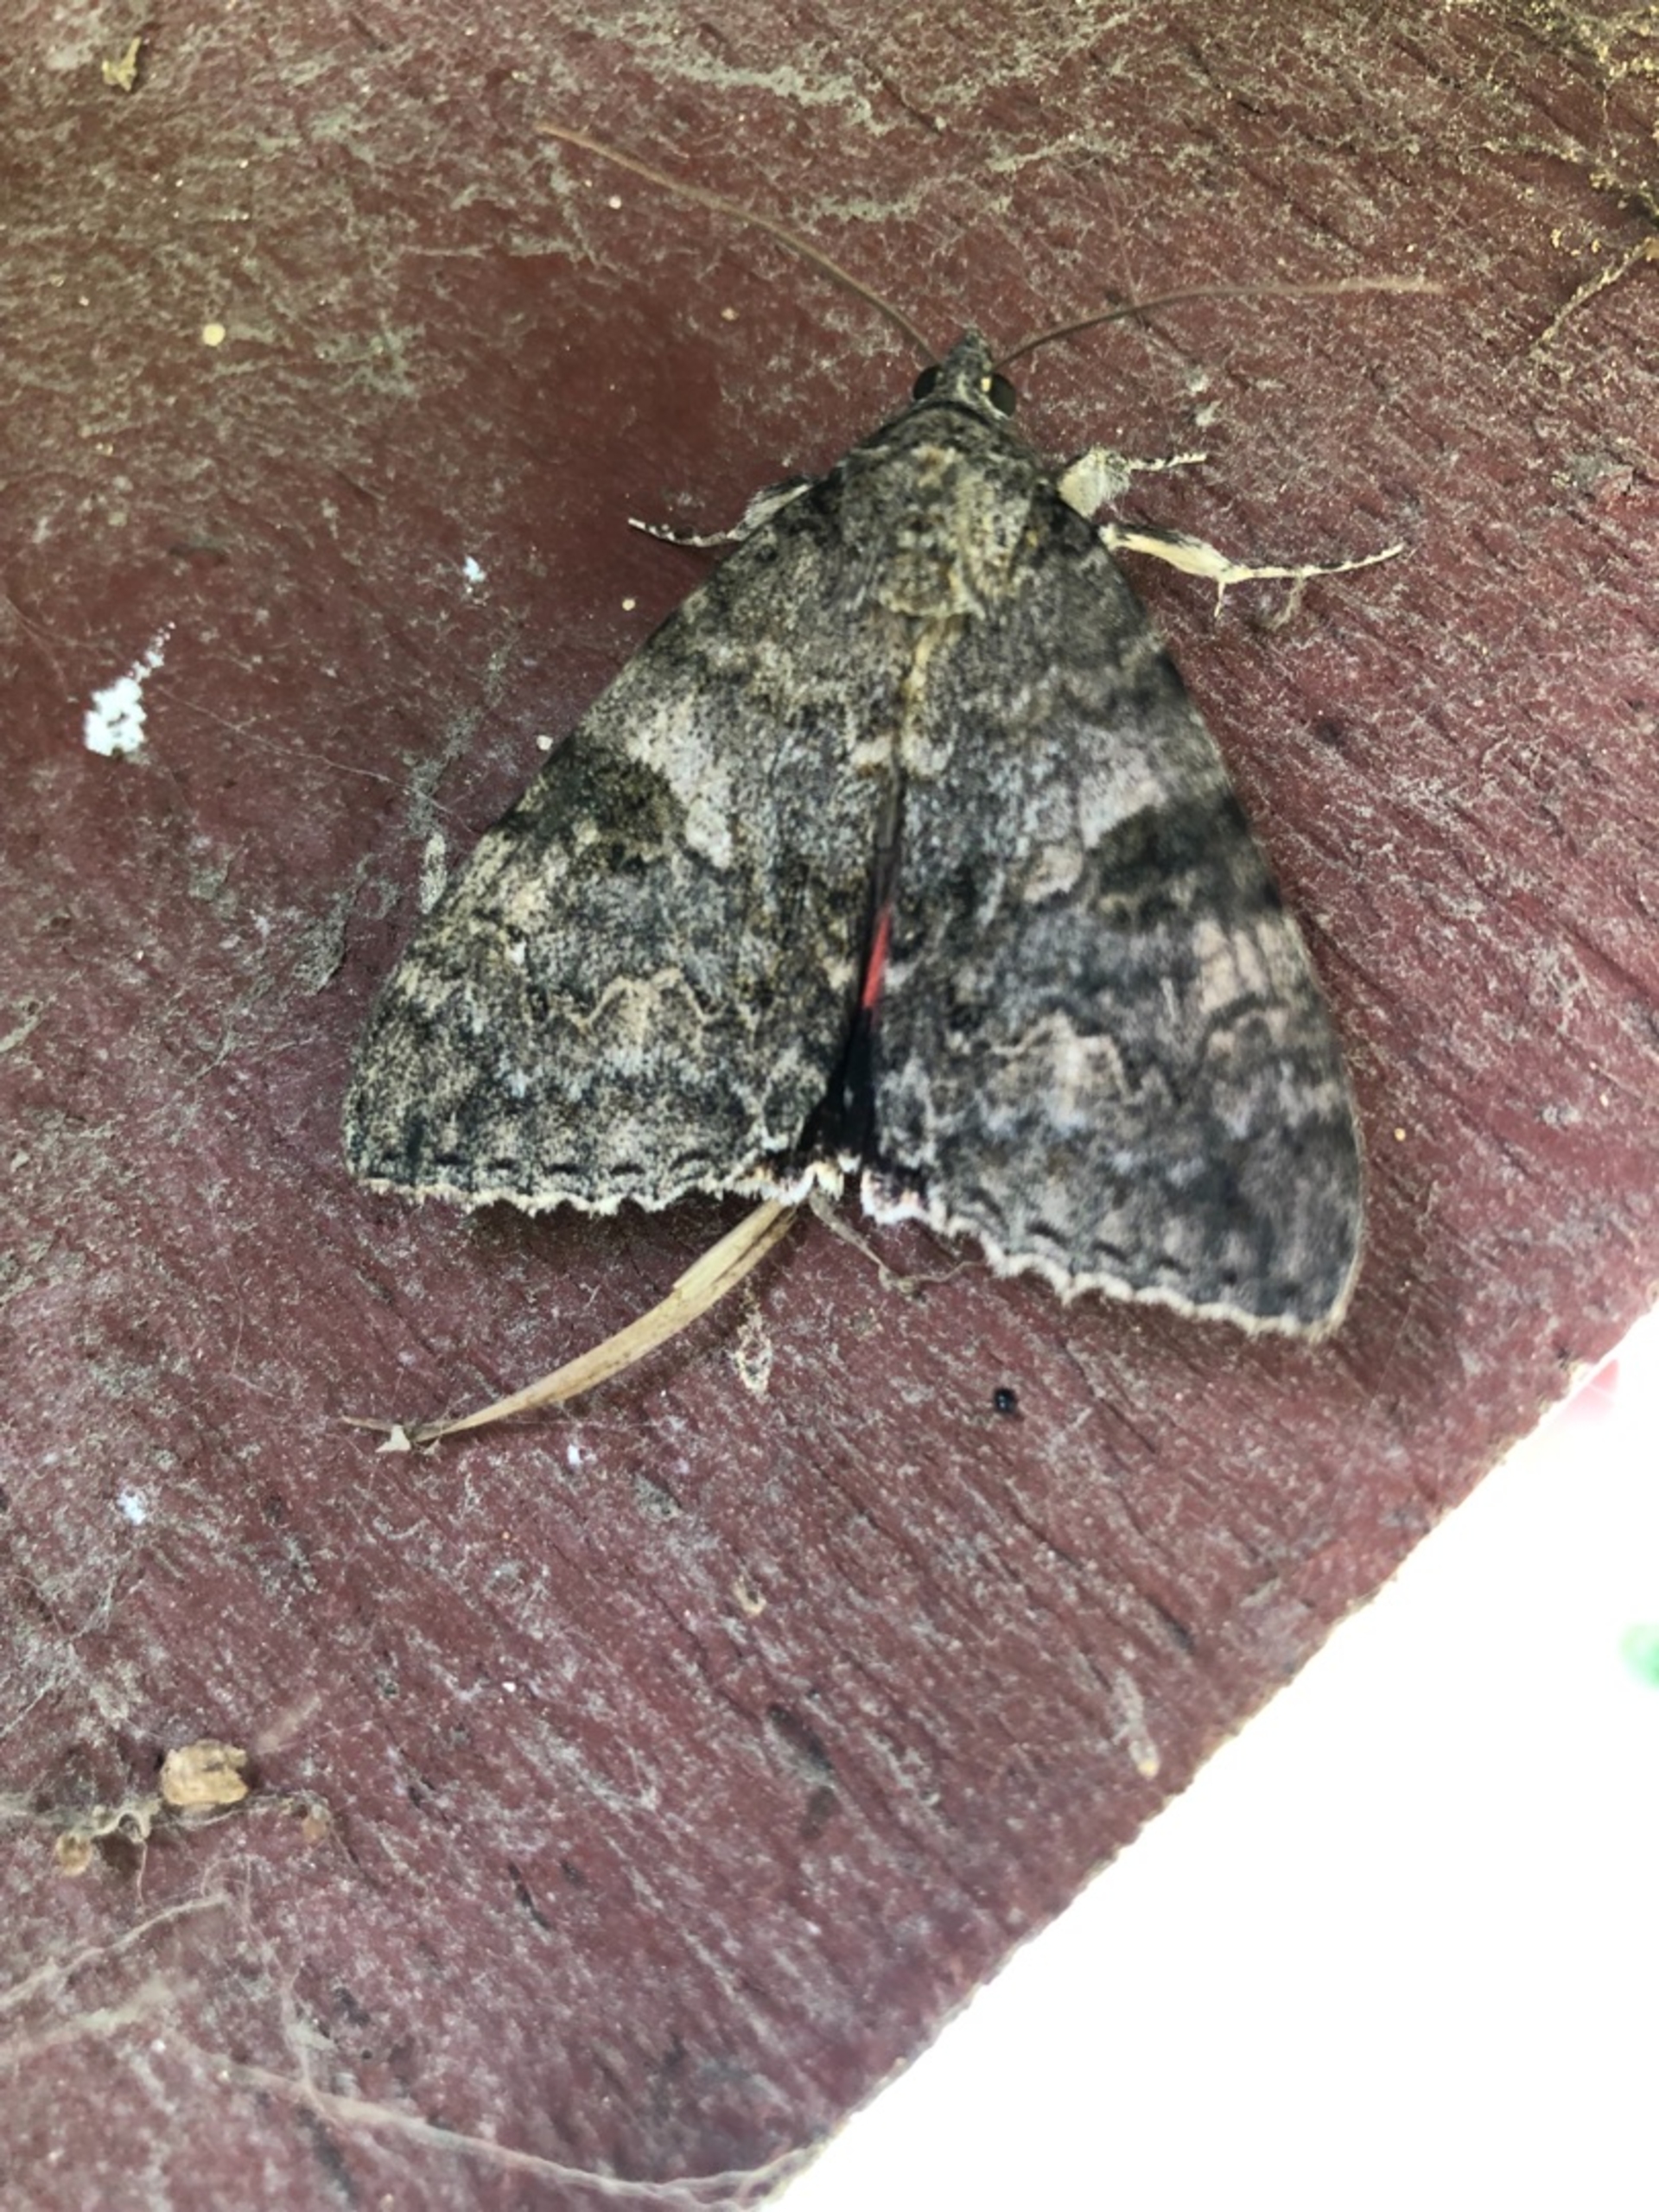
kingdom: Animalia
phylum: Arthropoda
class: Insecta
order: Lepidoptera
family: Erebidae
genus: Catocala
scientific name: Catocala nupta
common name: Rødt ordensbånd
